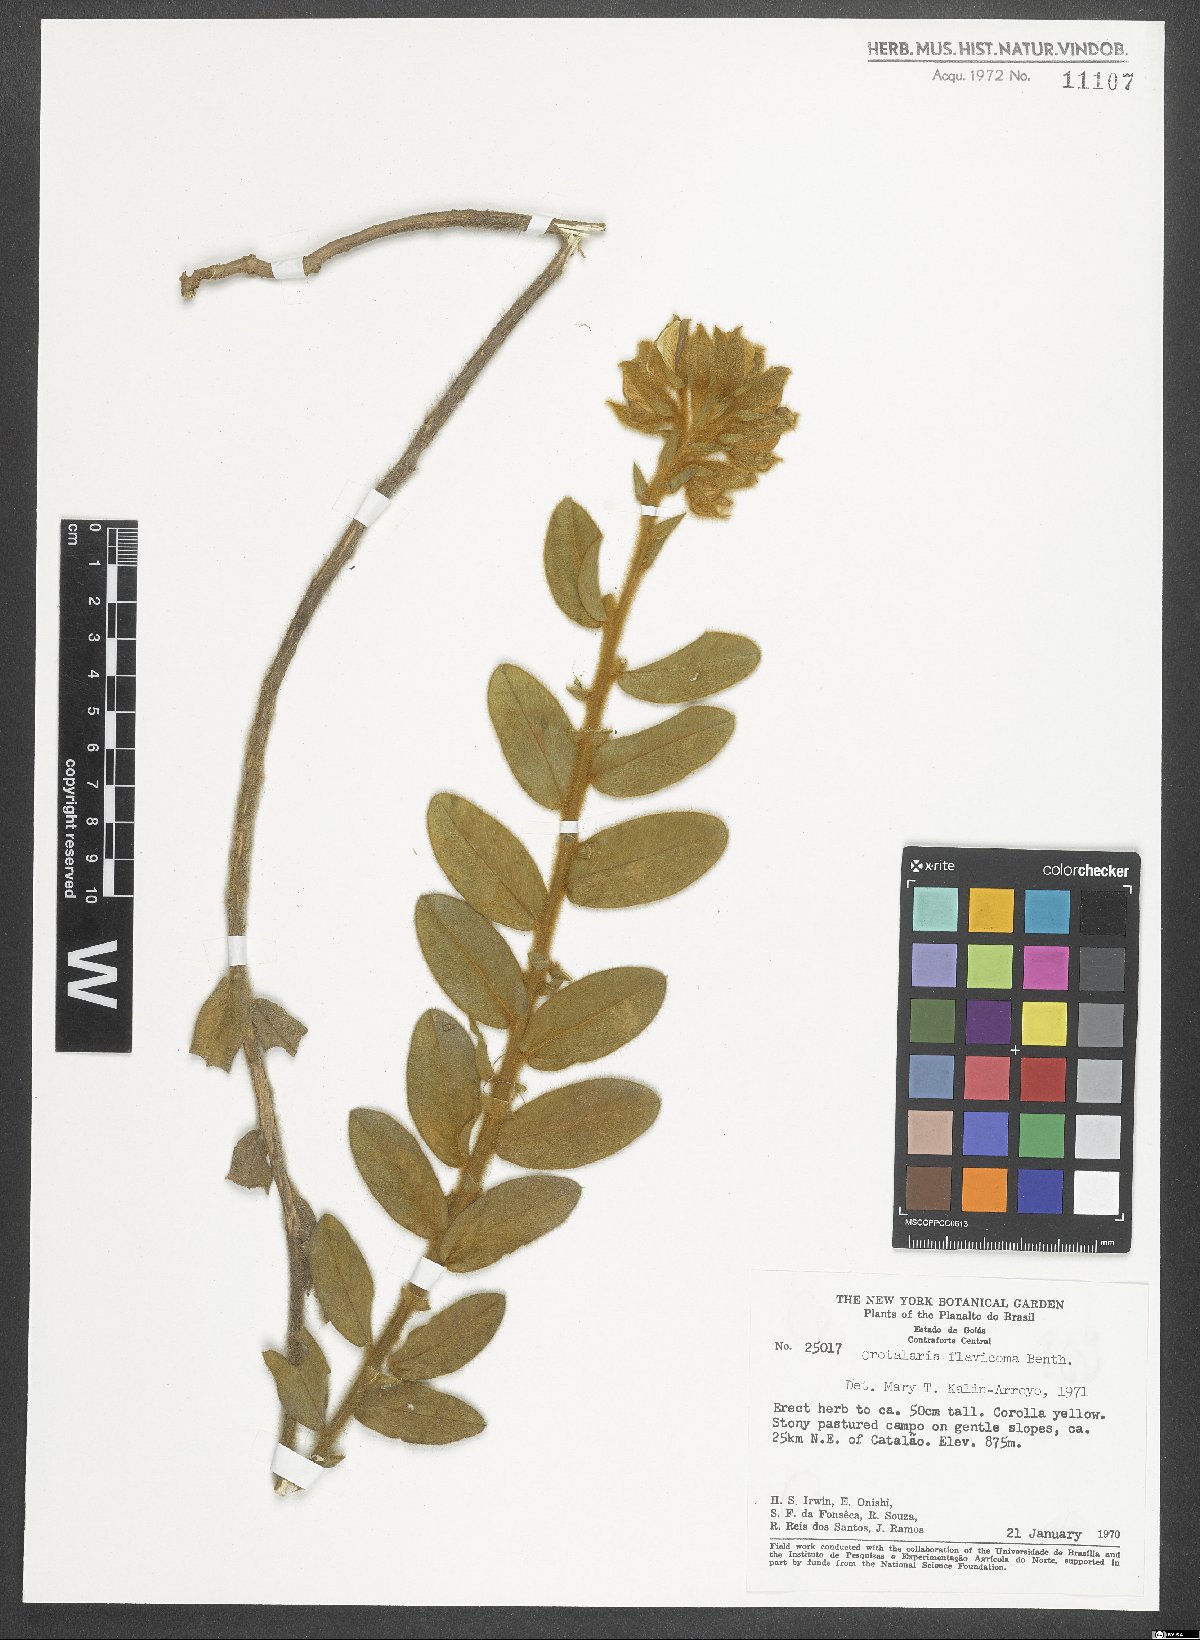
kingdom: Plantae
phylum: Tracheophyta
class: Magnoliopsida
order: Fabales
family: Fabaceae
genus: Crotalaria
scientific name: Crotalaria flavicoma
